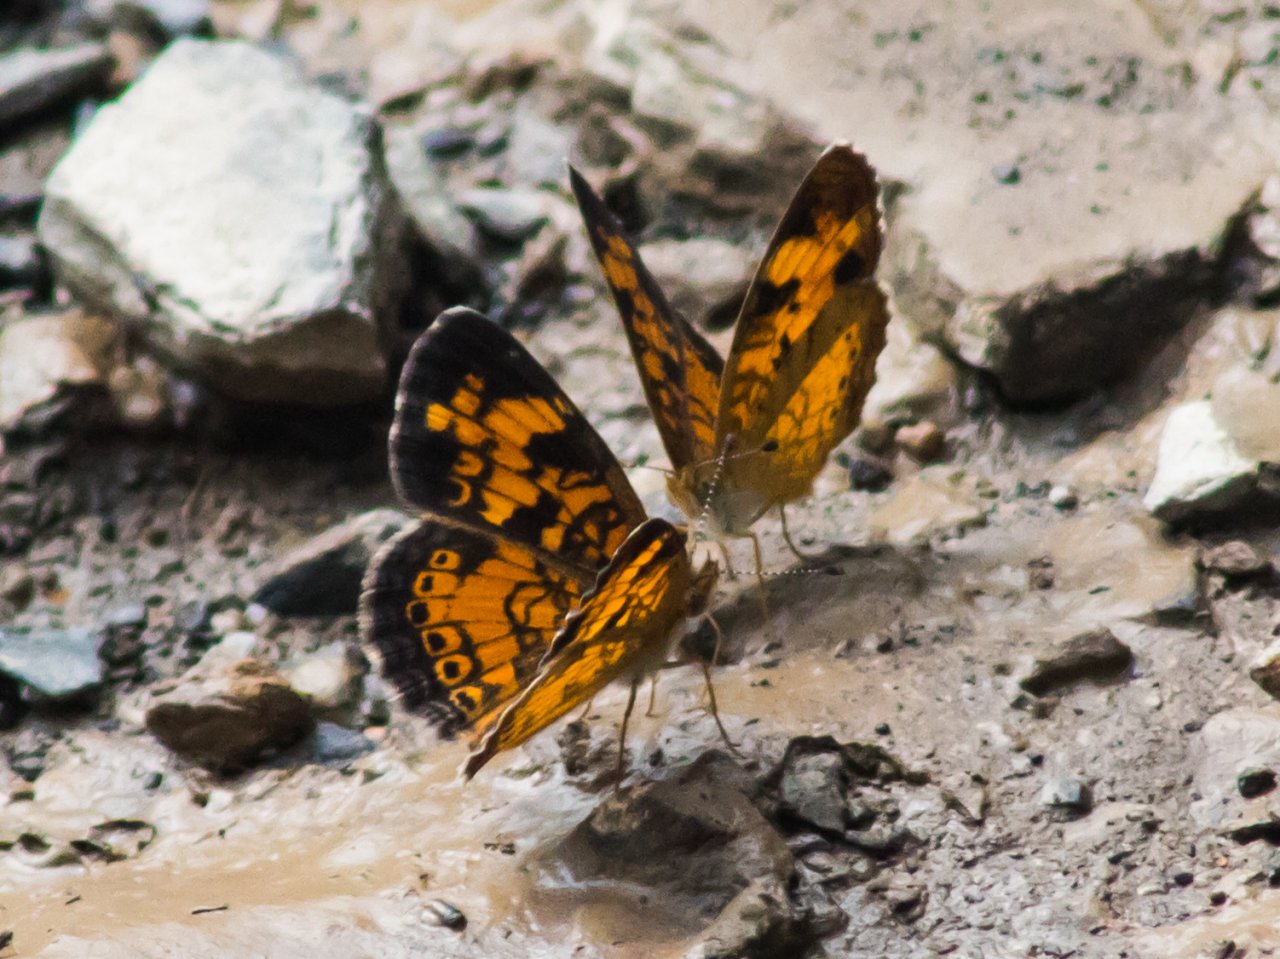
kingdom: Animalia
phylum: Arthropoda
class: Insecta
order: Lepidoptera
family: Nymphalidae
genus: Phyciodes
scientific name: Phyciodes tharos
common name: Pearl Crescent
